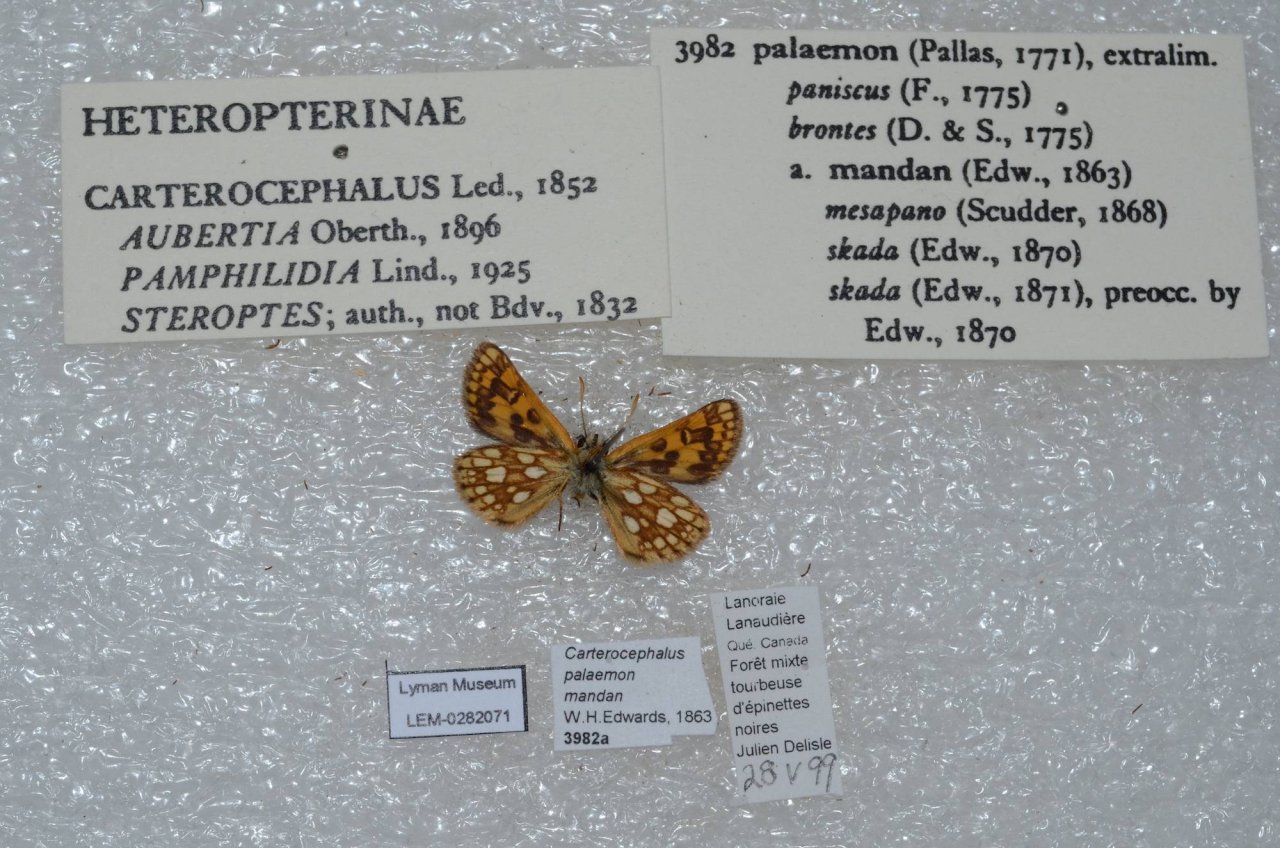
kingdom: Animalia
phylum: Arthropoda
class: Insecta
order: Lepidoptera
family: Hesperiidae
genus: Carterocephalus
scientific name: Carterocephalus palaemon
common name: Chequered Skipper
